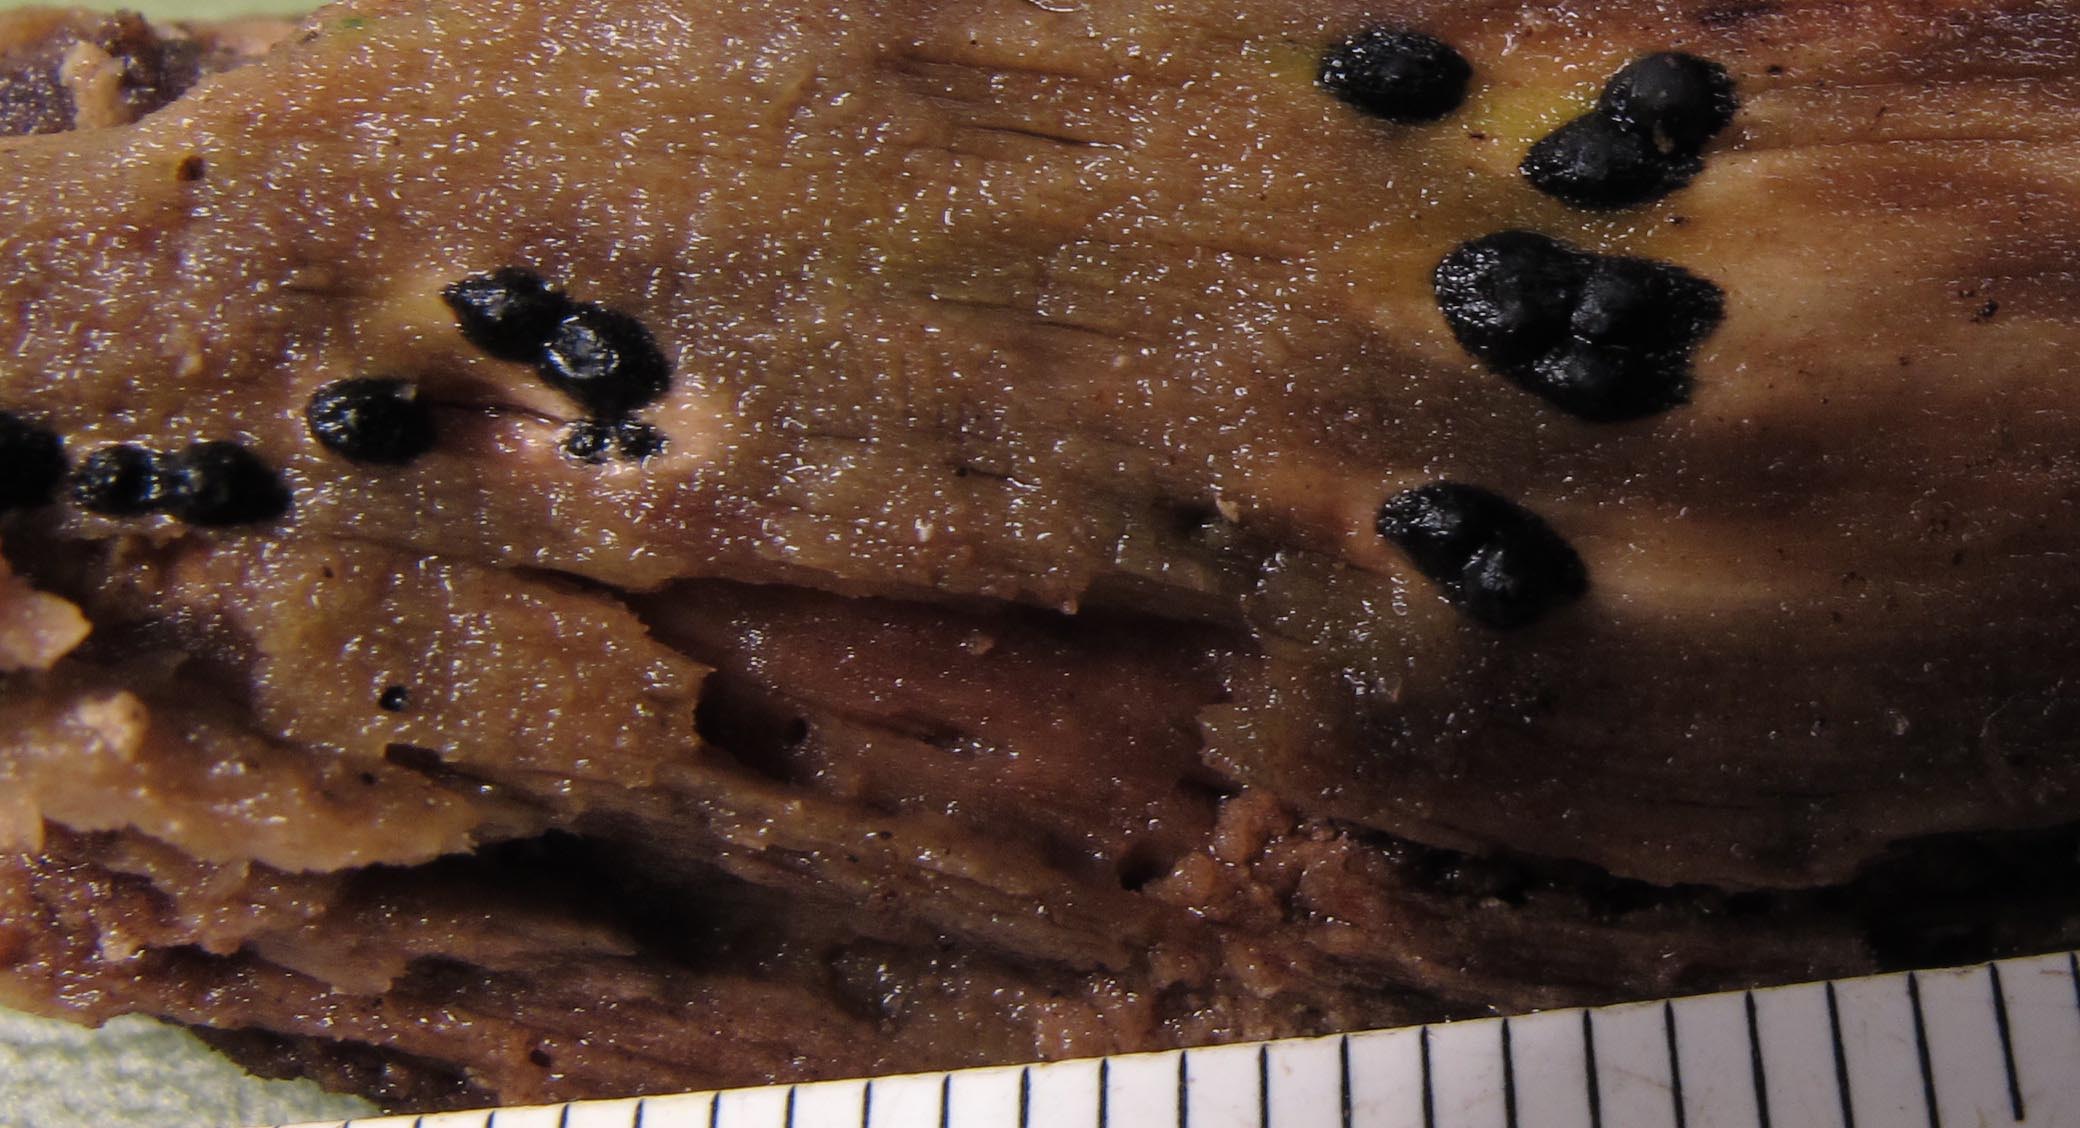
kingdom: Fungi
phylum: Ascomycota
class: Sordariomycetes
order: Xylariales
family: Xylariaceae
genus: Nemania
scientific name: Nemania confluens
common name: indsænket kuldyne
